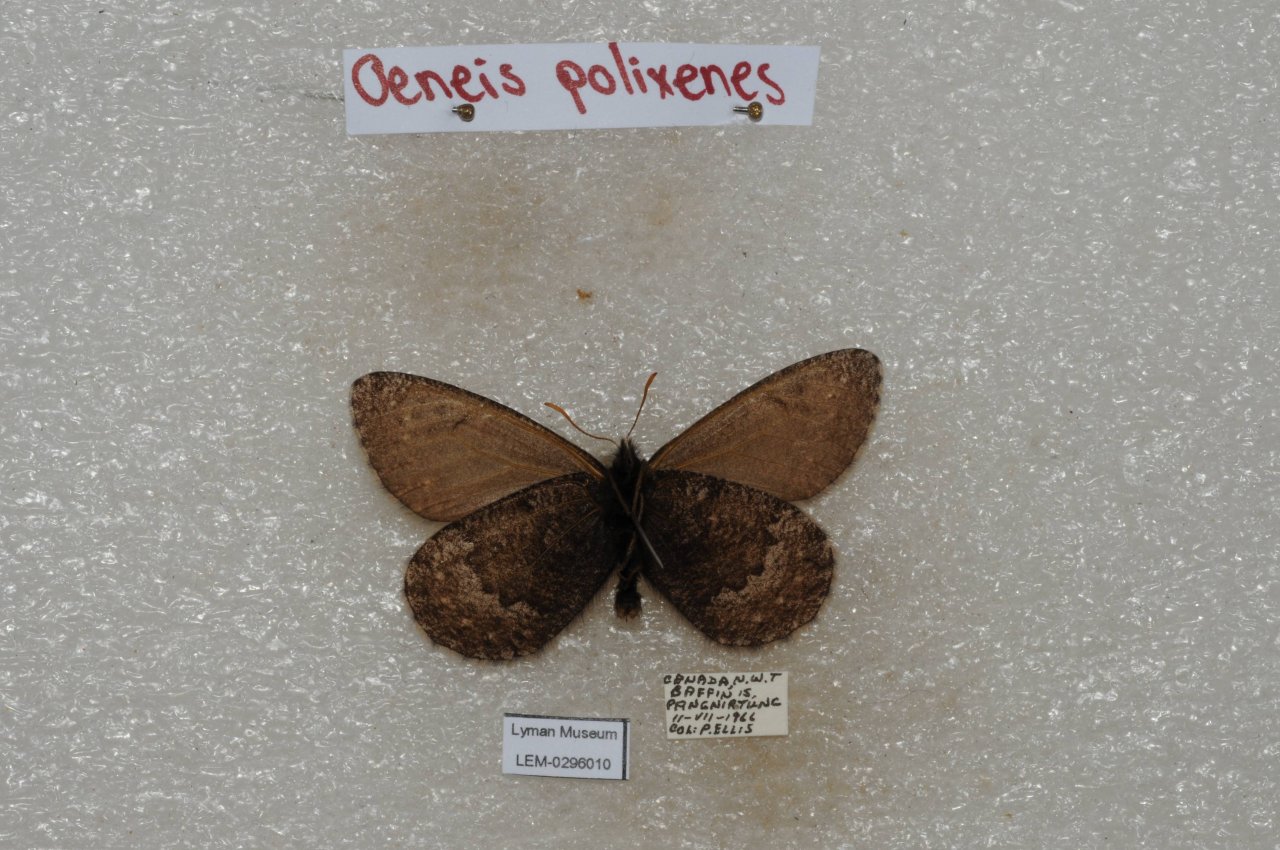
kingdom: Animalia
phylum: Arthropoda
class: Insecta
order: Lepidoptera
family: Nymphalidae
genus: Oeneis
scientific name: Oeneis bore
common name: Polixenes Arctic
